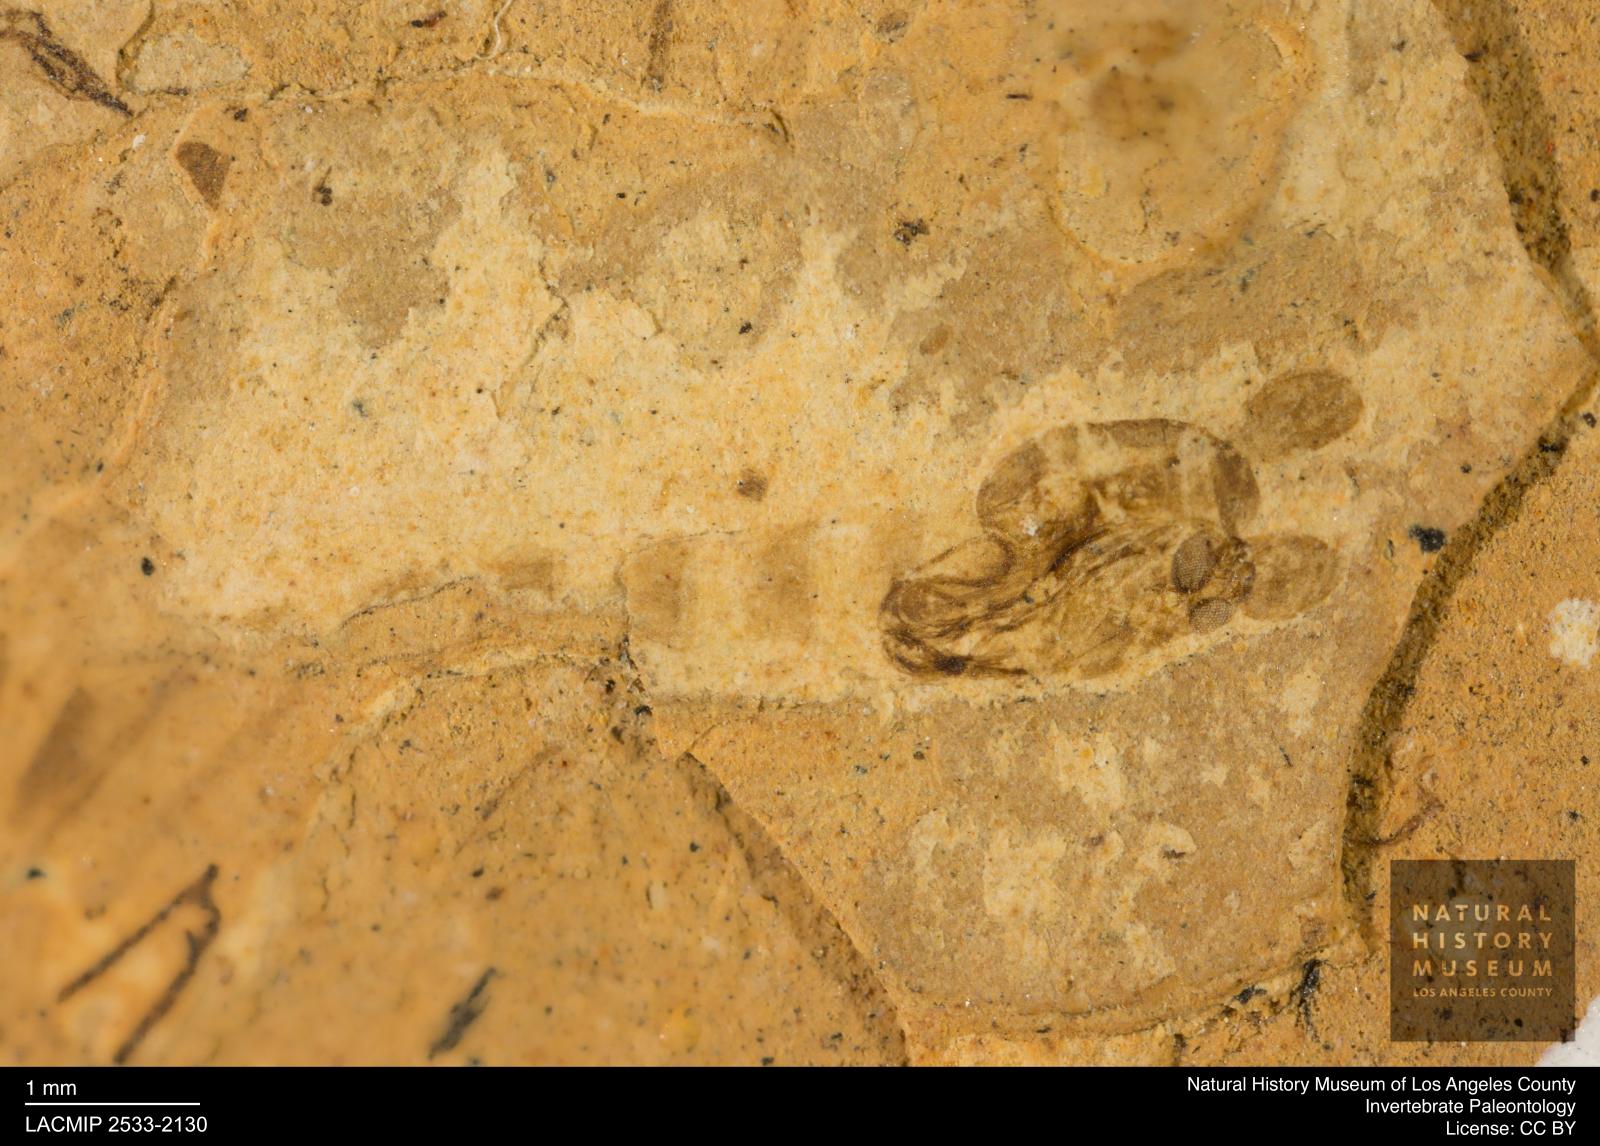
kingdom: Animalia
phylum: Arthropoda
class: Insecta
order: Diptera
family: Chironomidae
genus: Pelopiina
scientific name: Pelopiina
